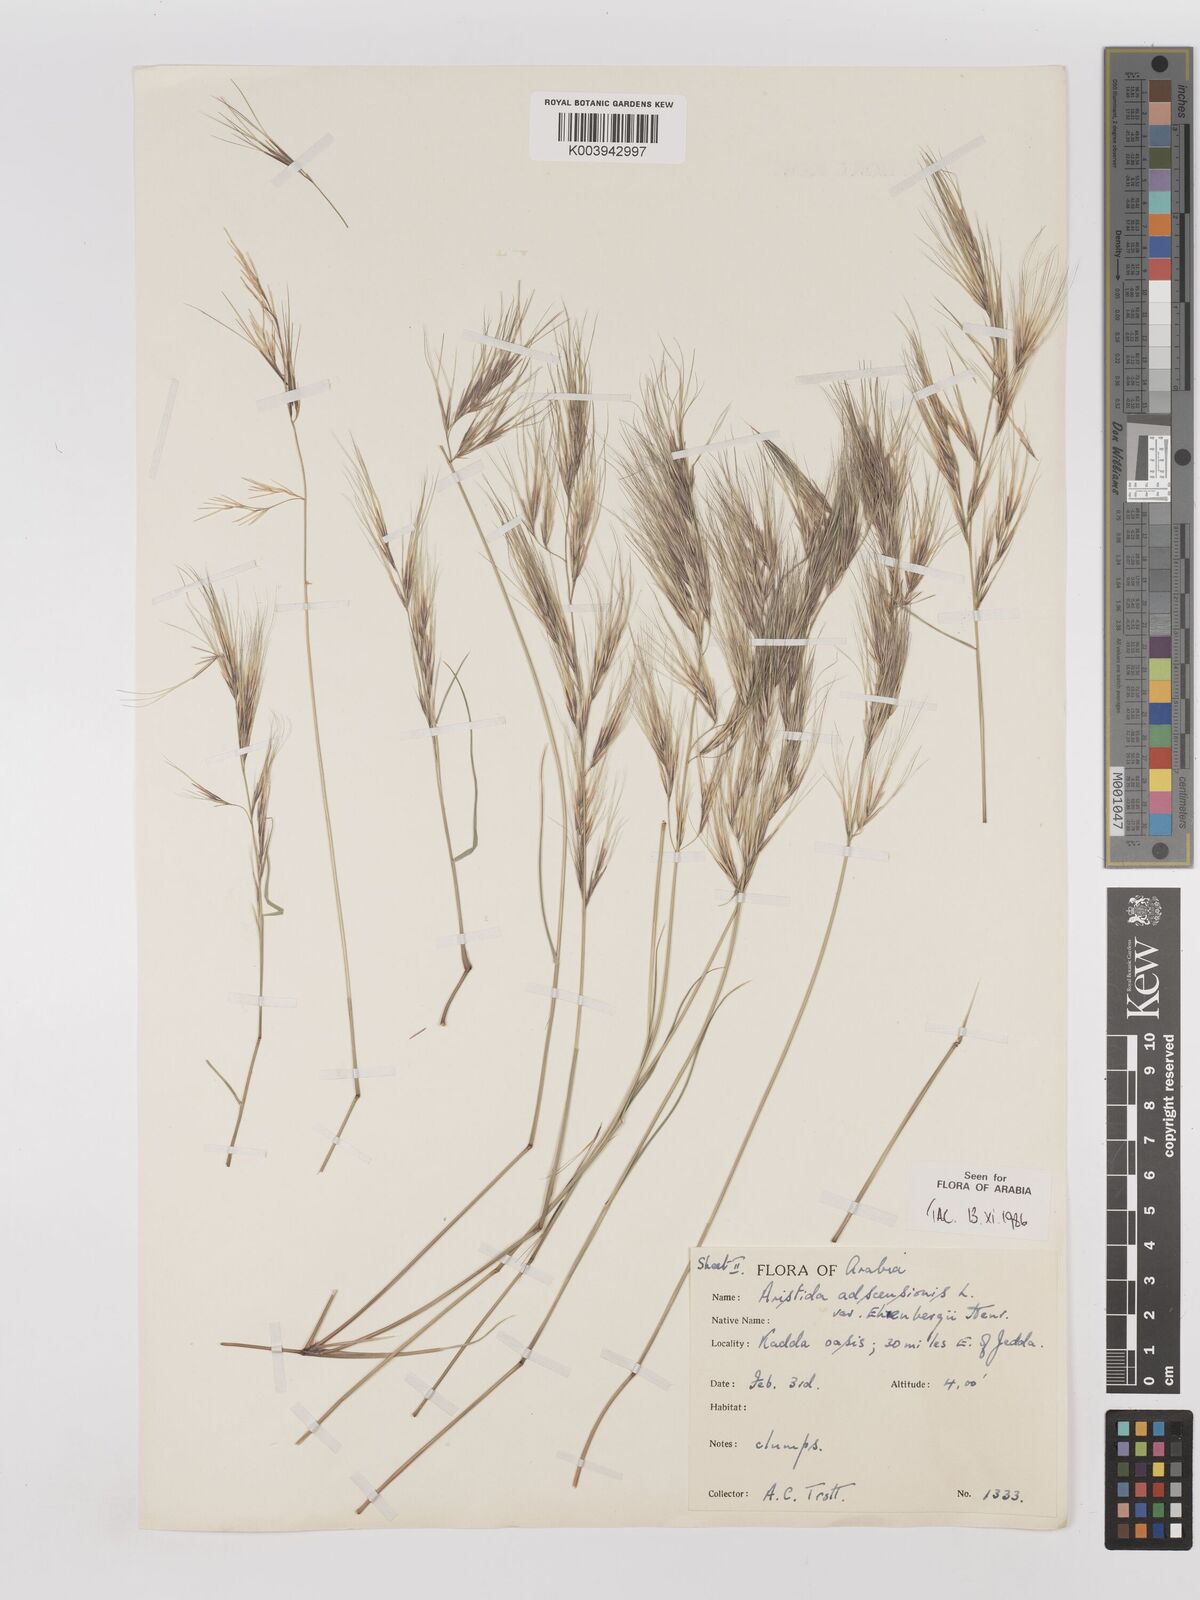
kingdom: Plantae
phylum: Tracheophyta
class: Liliopsida
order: Poales
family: Poaceae
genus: Aristida
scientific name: Aristida adscensionis
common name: Sixweeks threeawn
